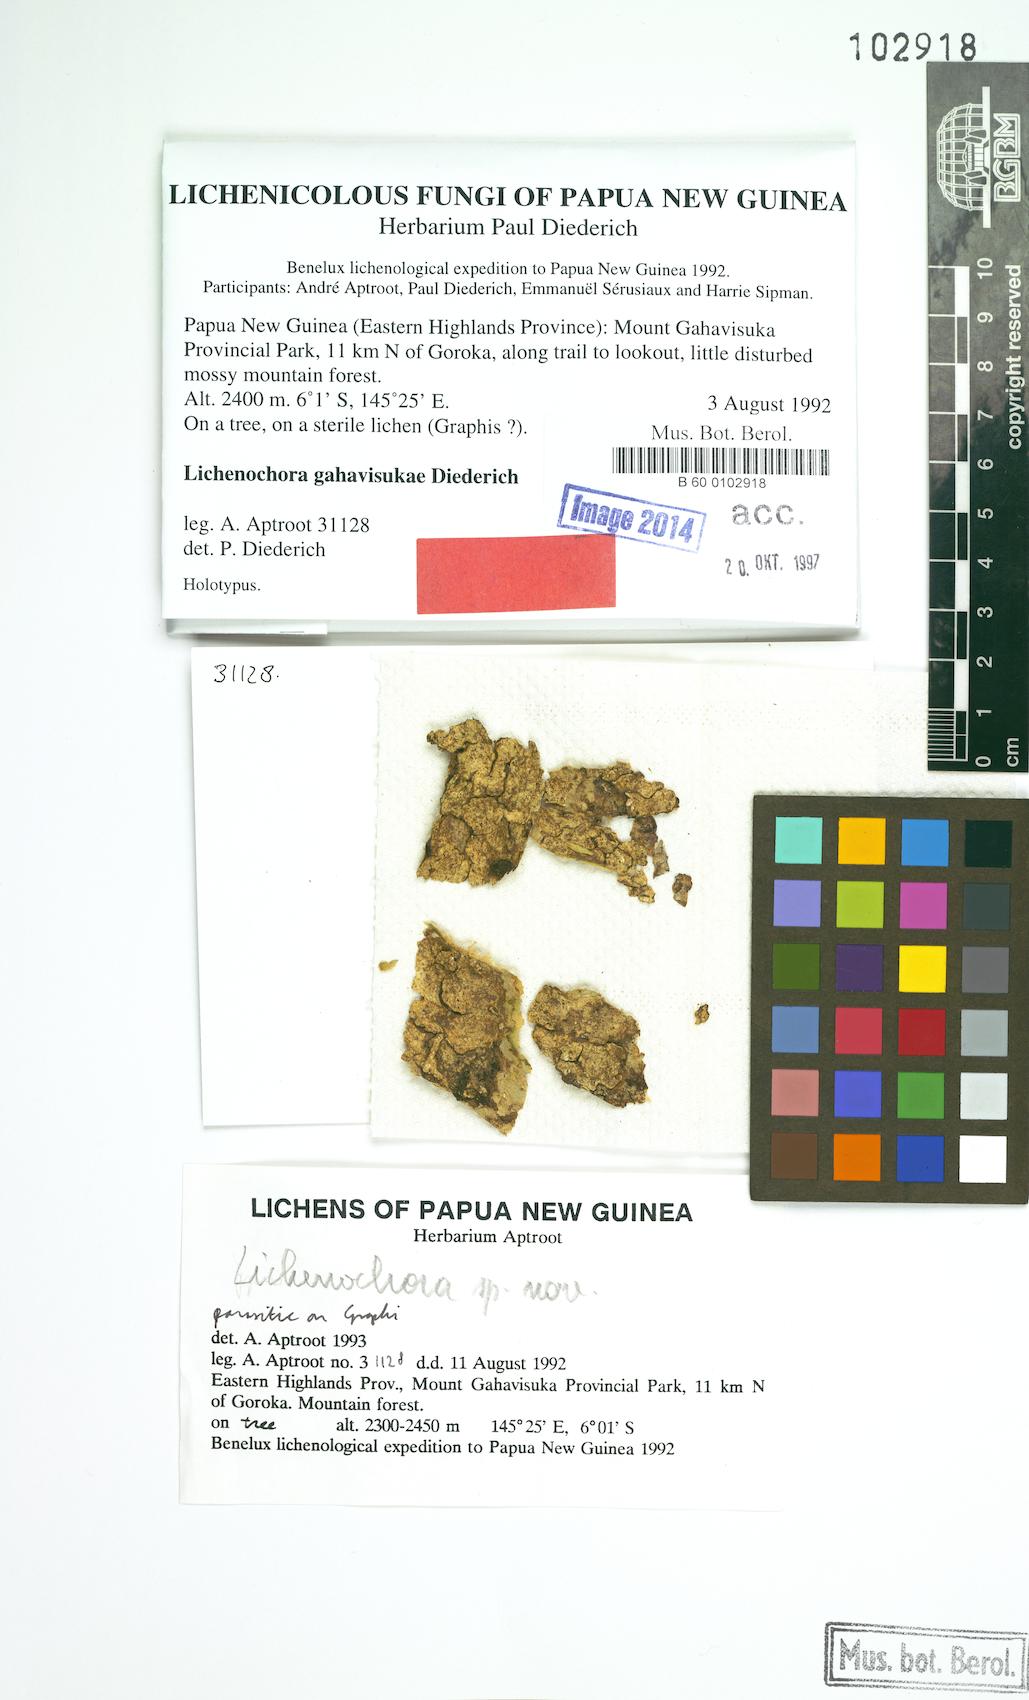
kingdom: Fungi
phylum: Ascomycota
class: Sordariomycetes
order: Phyllachorales
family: Phyllachoraceae
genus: Lichenochora
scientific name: Lichenochora gahavisukae
